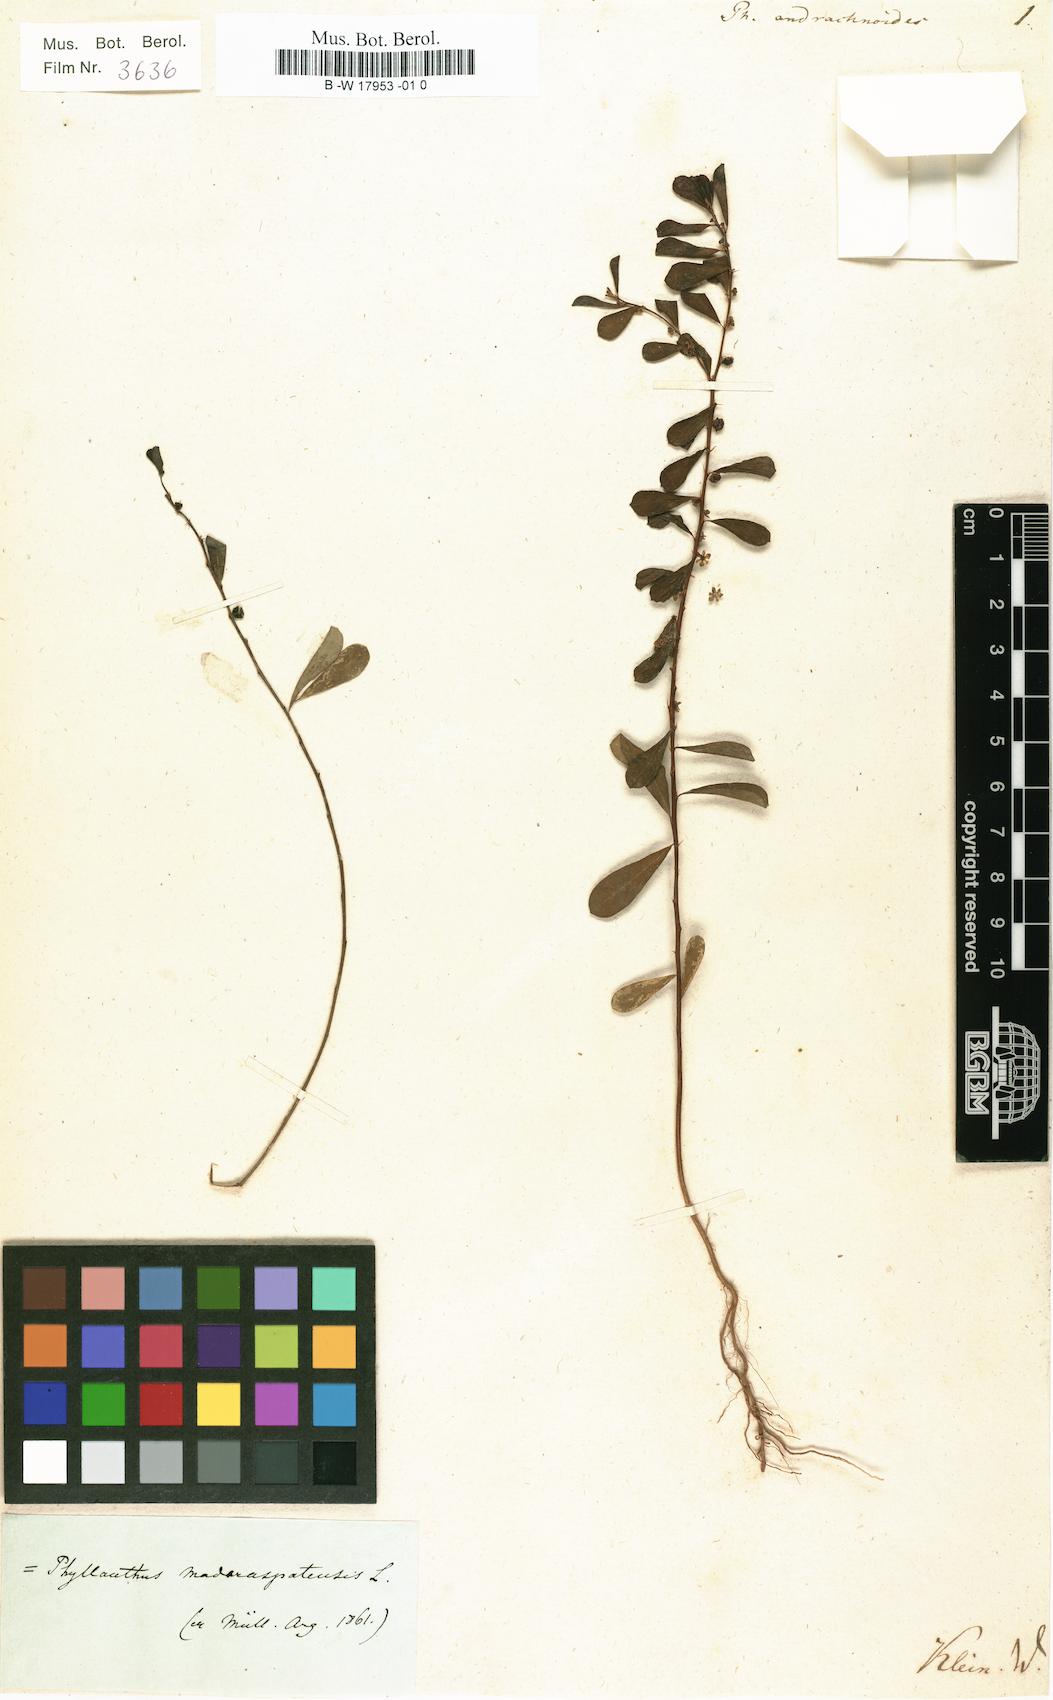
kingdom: Plantae
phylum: Tracheophyta
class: Magnoliopsida
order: Malpighiales
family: Phyllanthaceae
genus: Phyllanthus
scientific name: Phyllanthus maderaspatensis
